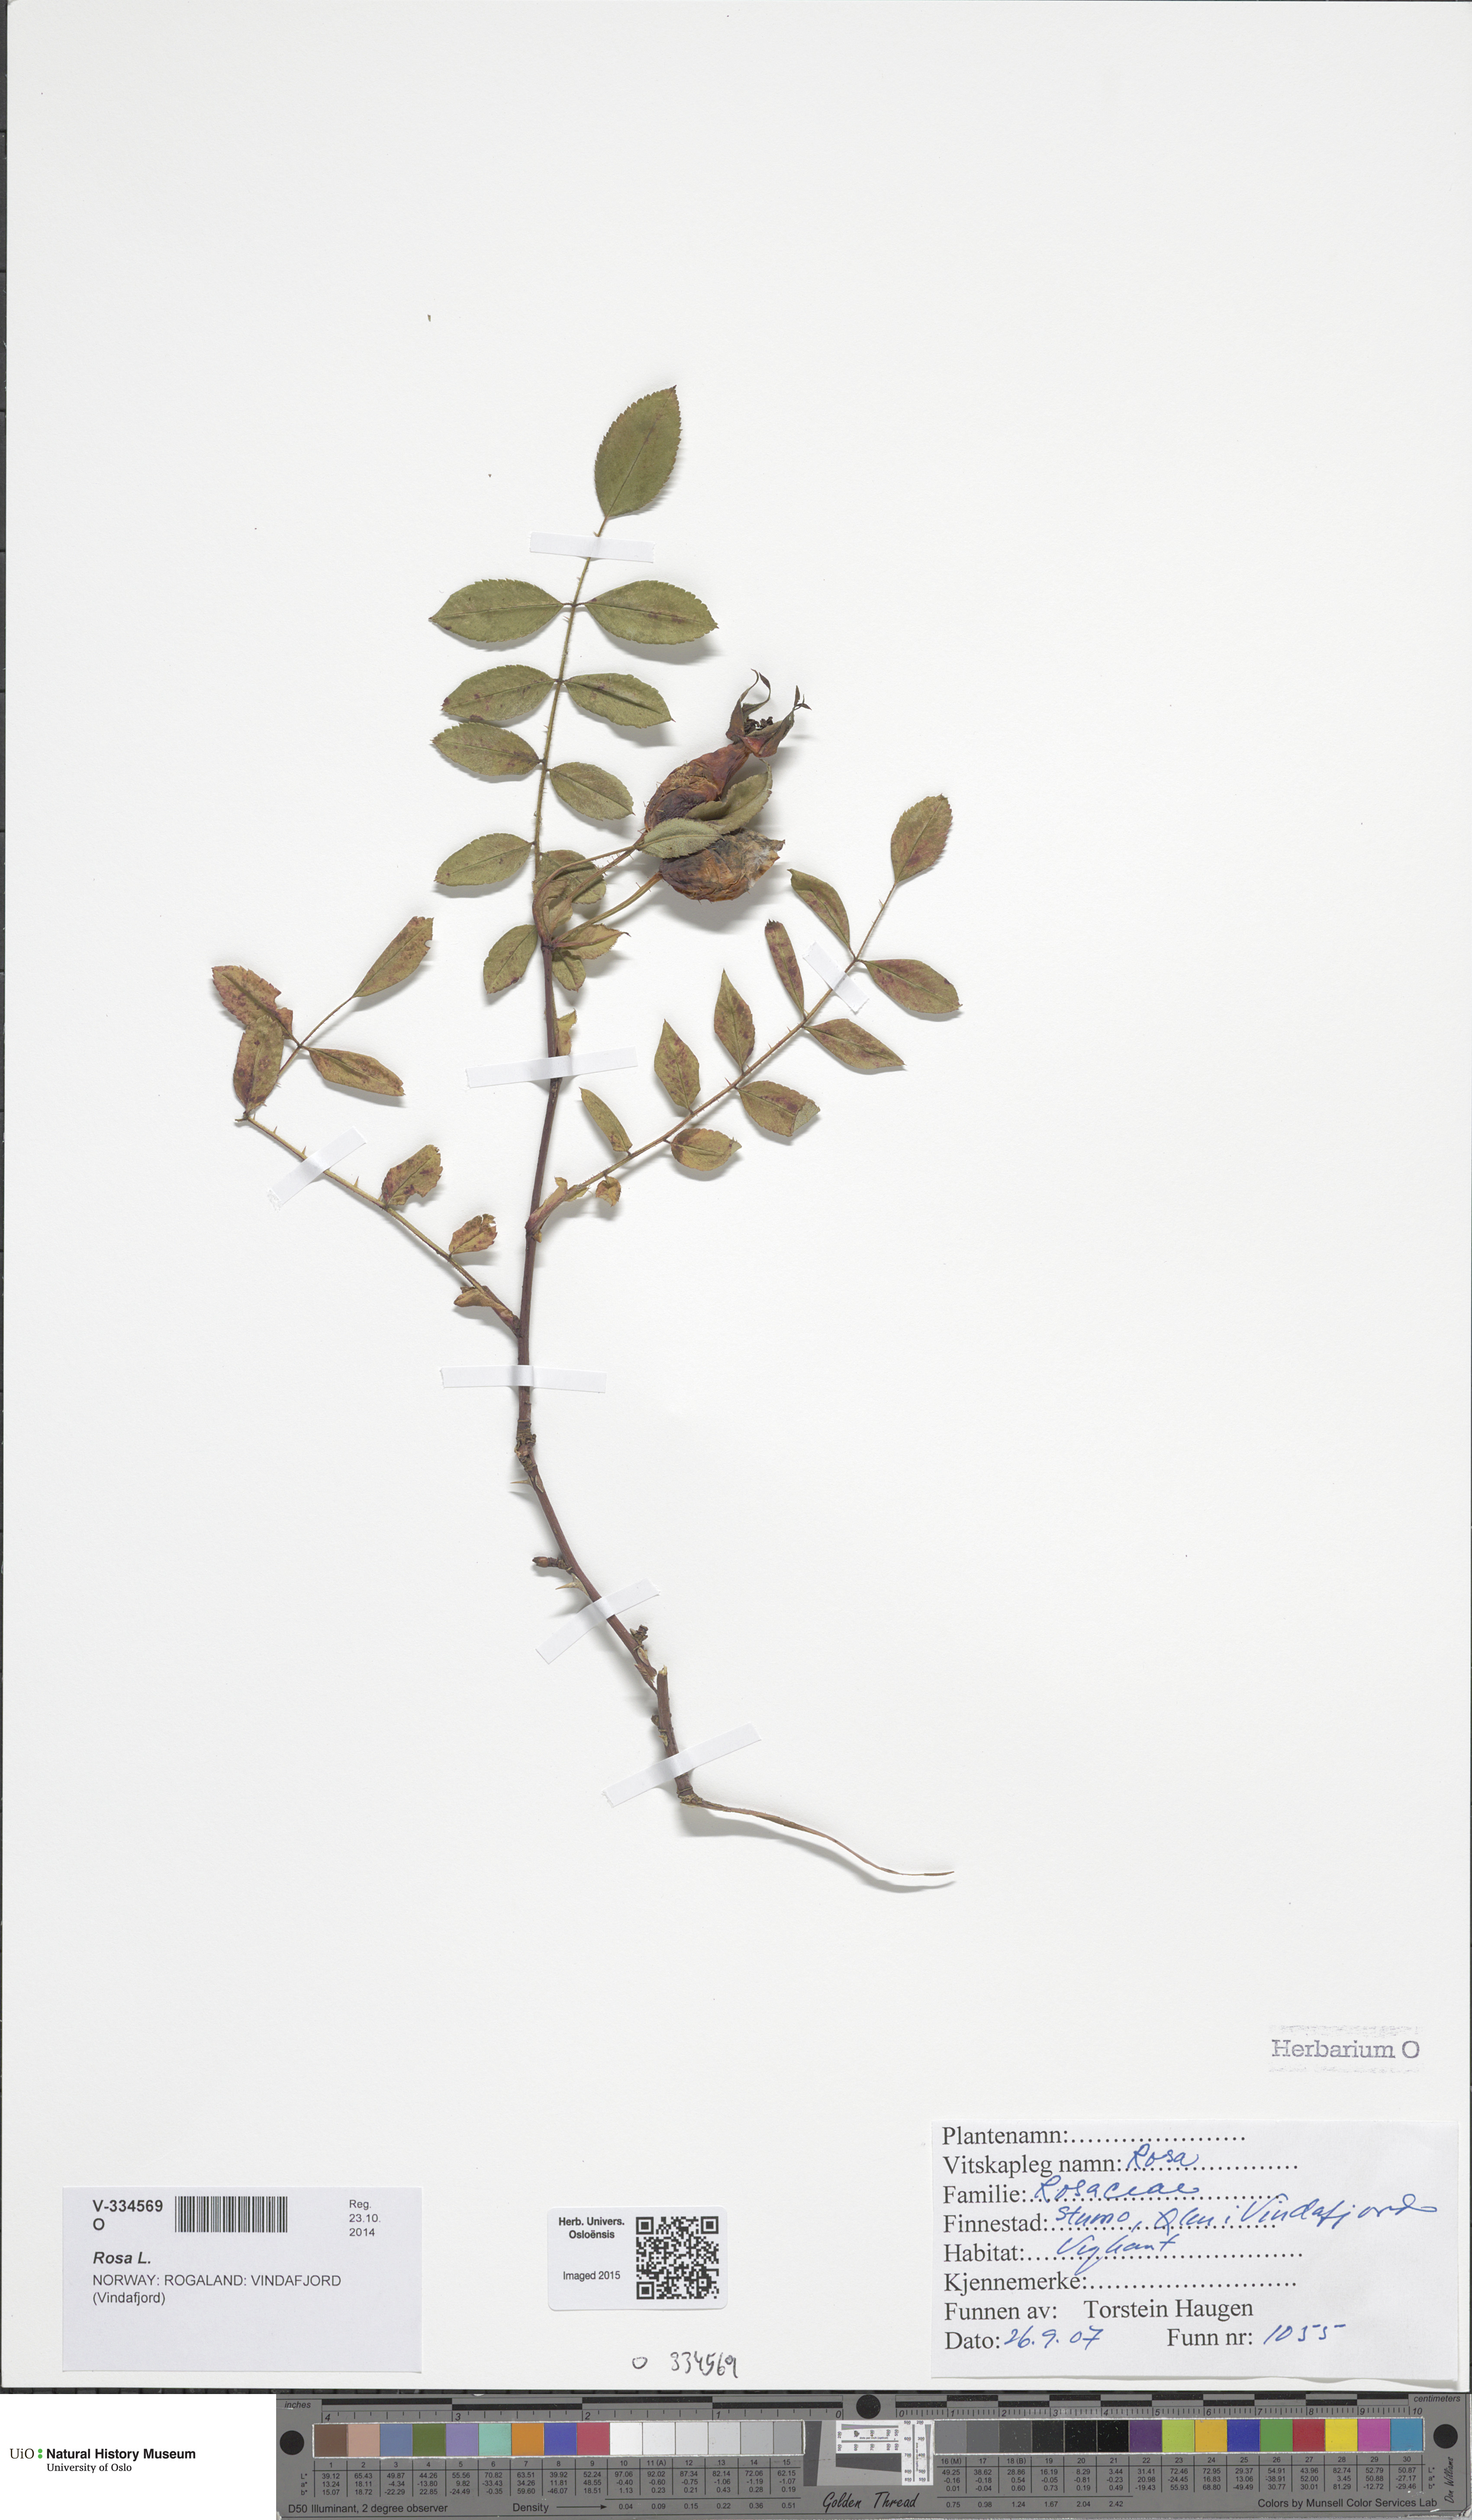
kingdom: Plantae
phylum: Tracheophyta
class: Magnoliopsida
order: Rosales
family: Rosaceae
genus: Rosa
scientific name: Rosa
